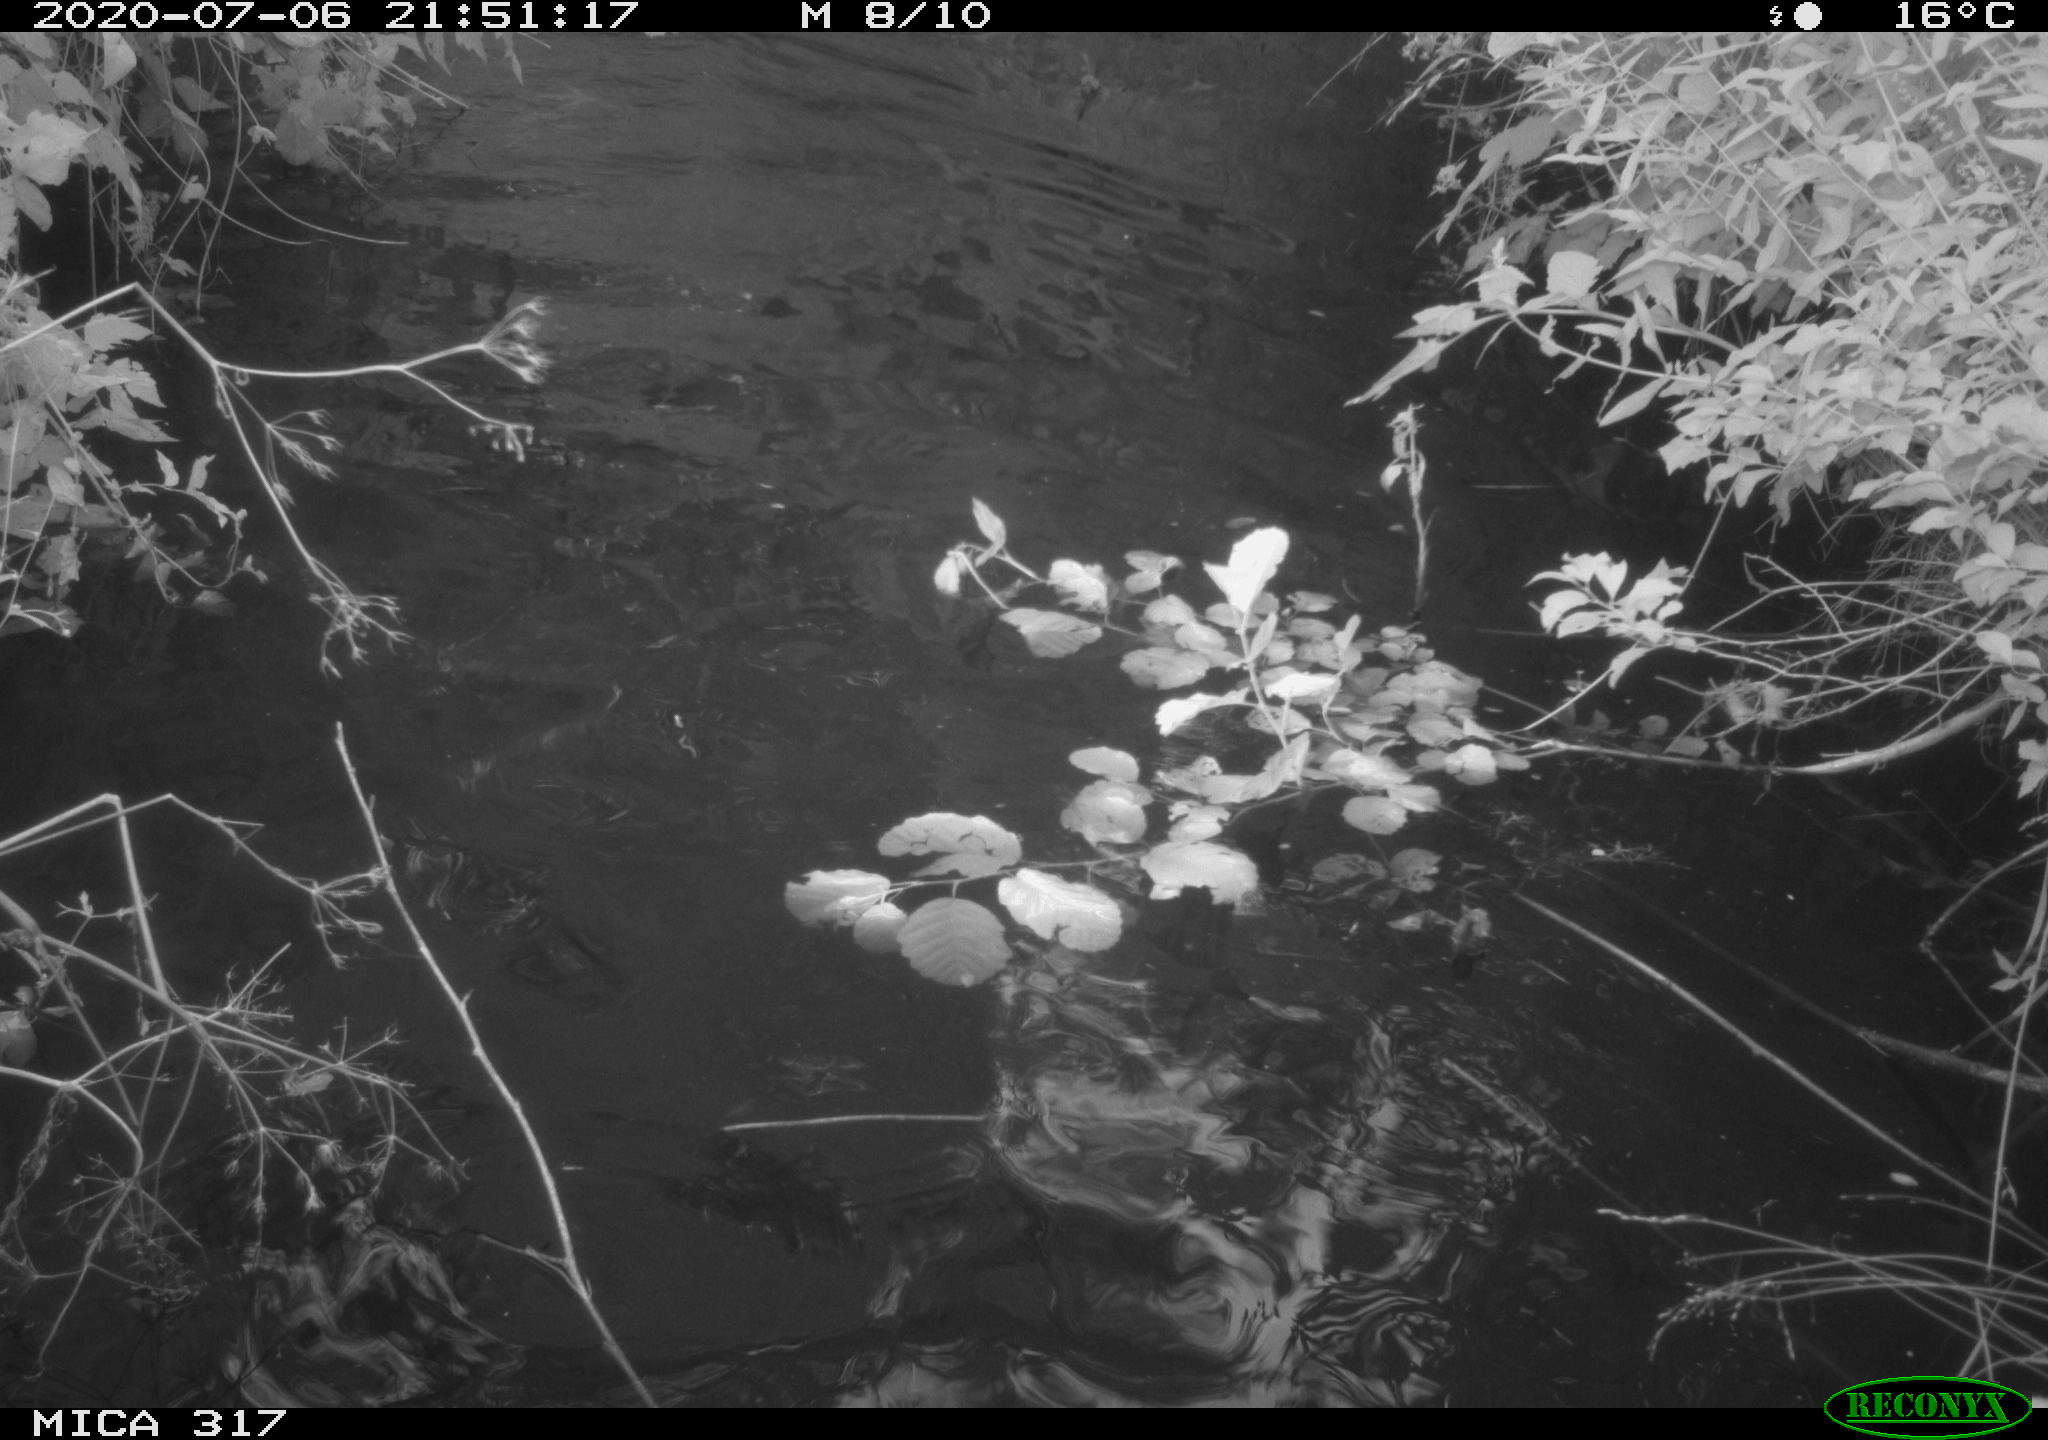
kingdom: Animalia
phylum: Chordata
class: Aves
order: Gruiformes
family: Rallidae
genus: Fulica
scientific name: Fulica atra
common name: Eurasian coot
